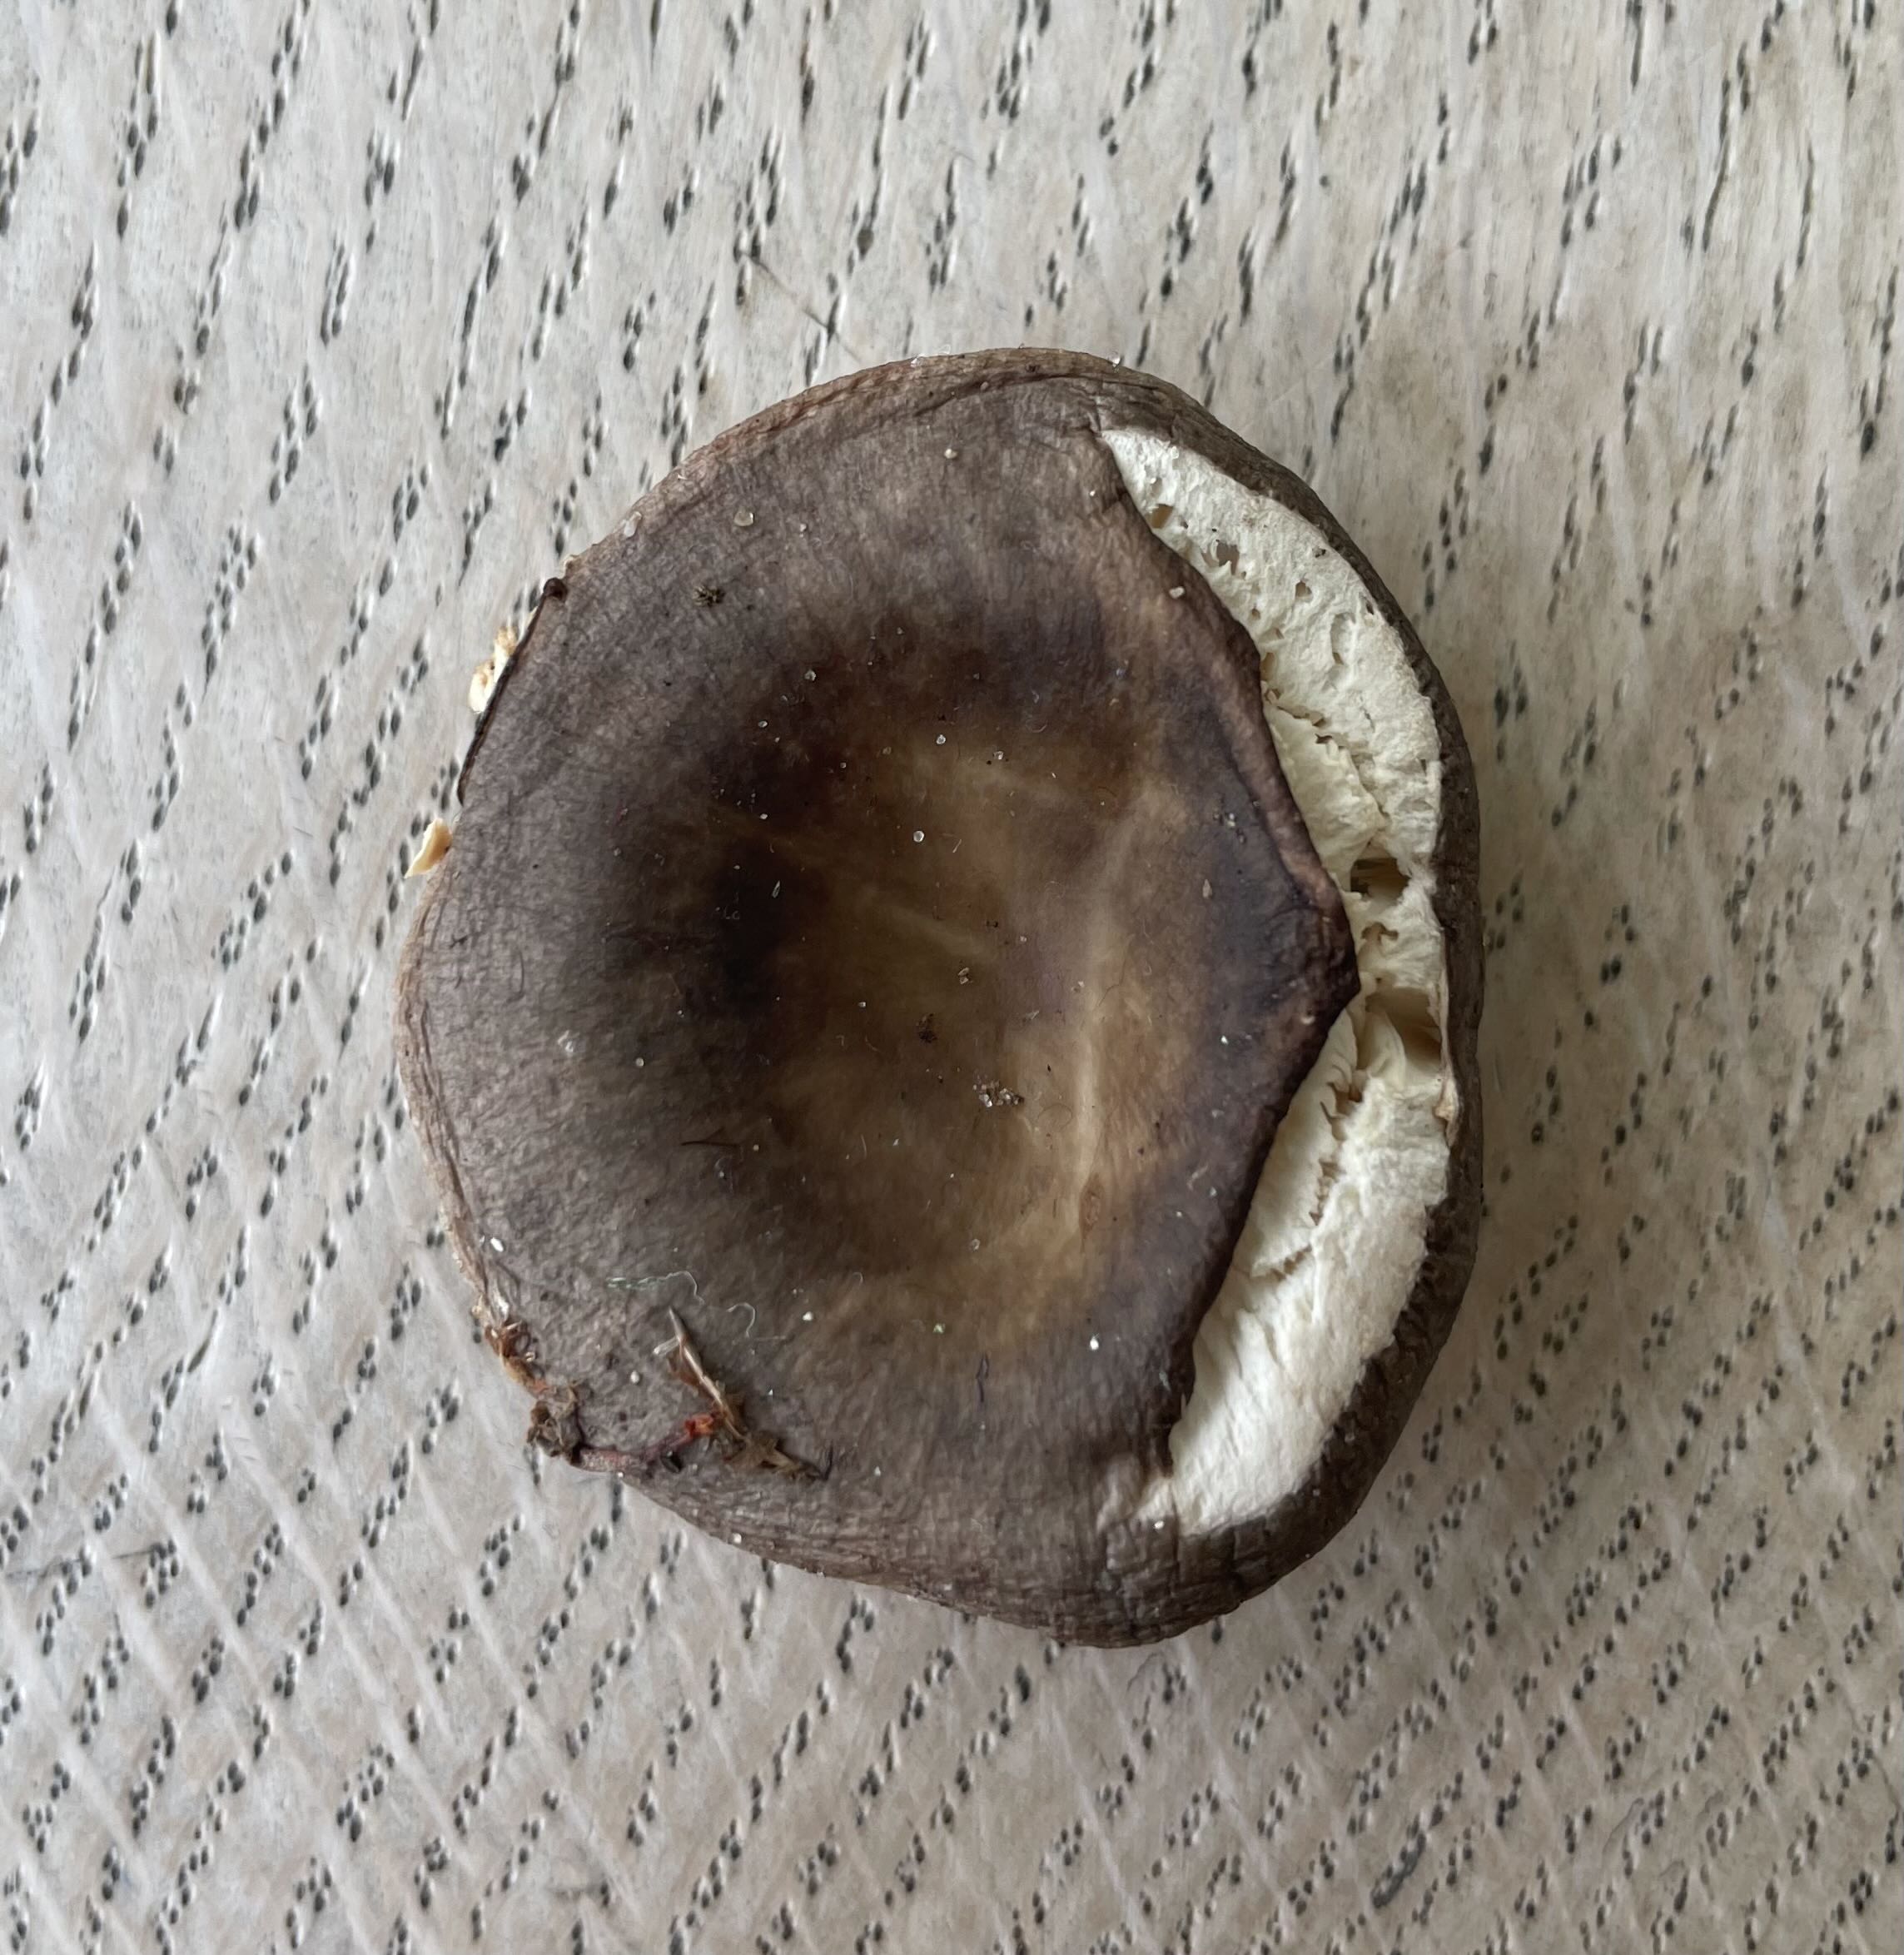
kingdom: Fungi
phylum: Basidiomycota
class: Agaricomycetes
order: Russulales
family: Russulaceae
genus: Russula
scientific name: Russula parazurea
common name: blågrå skørhat
